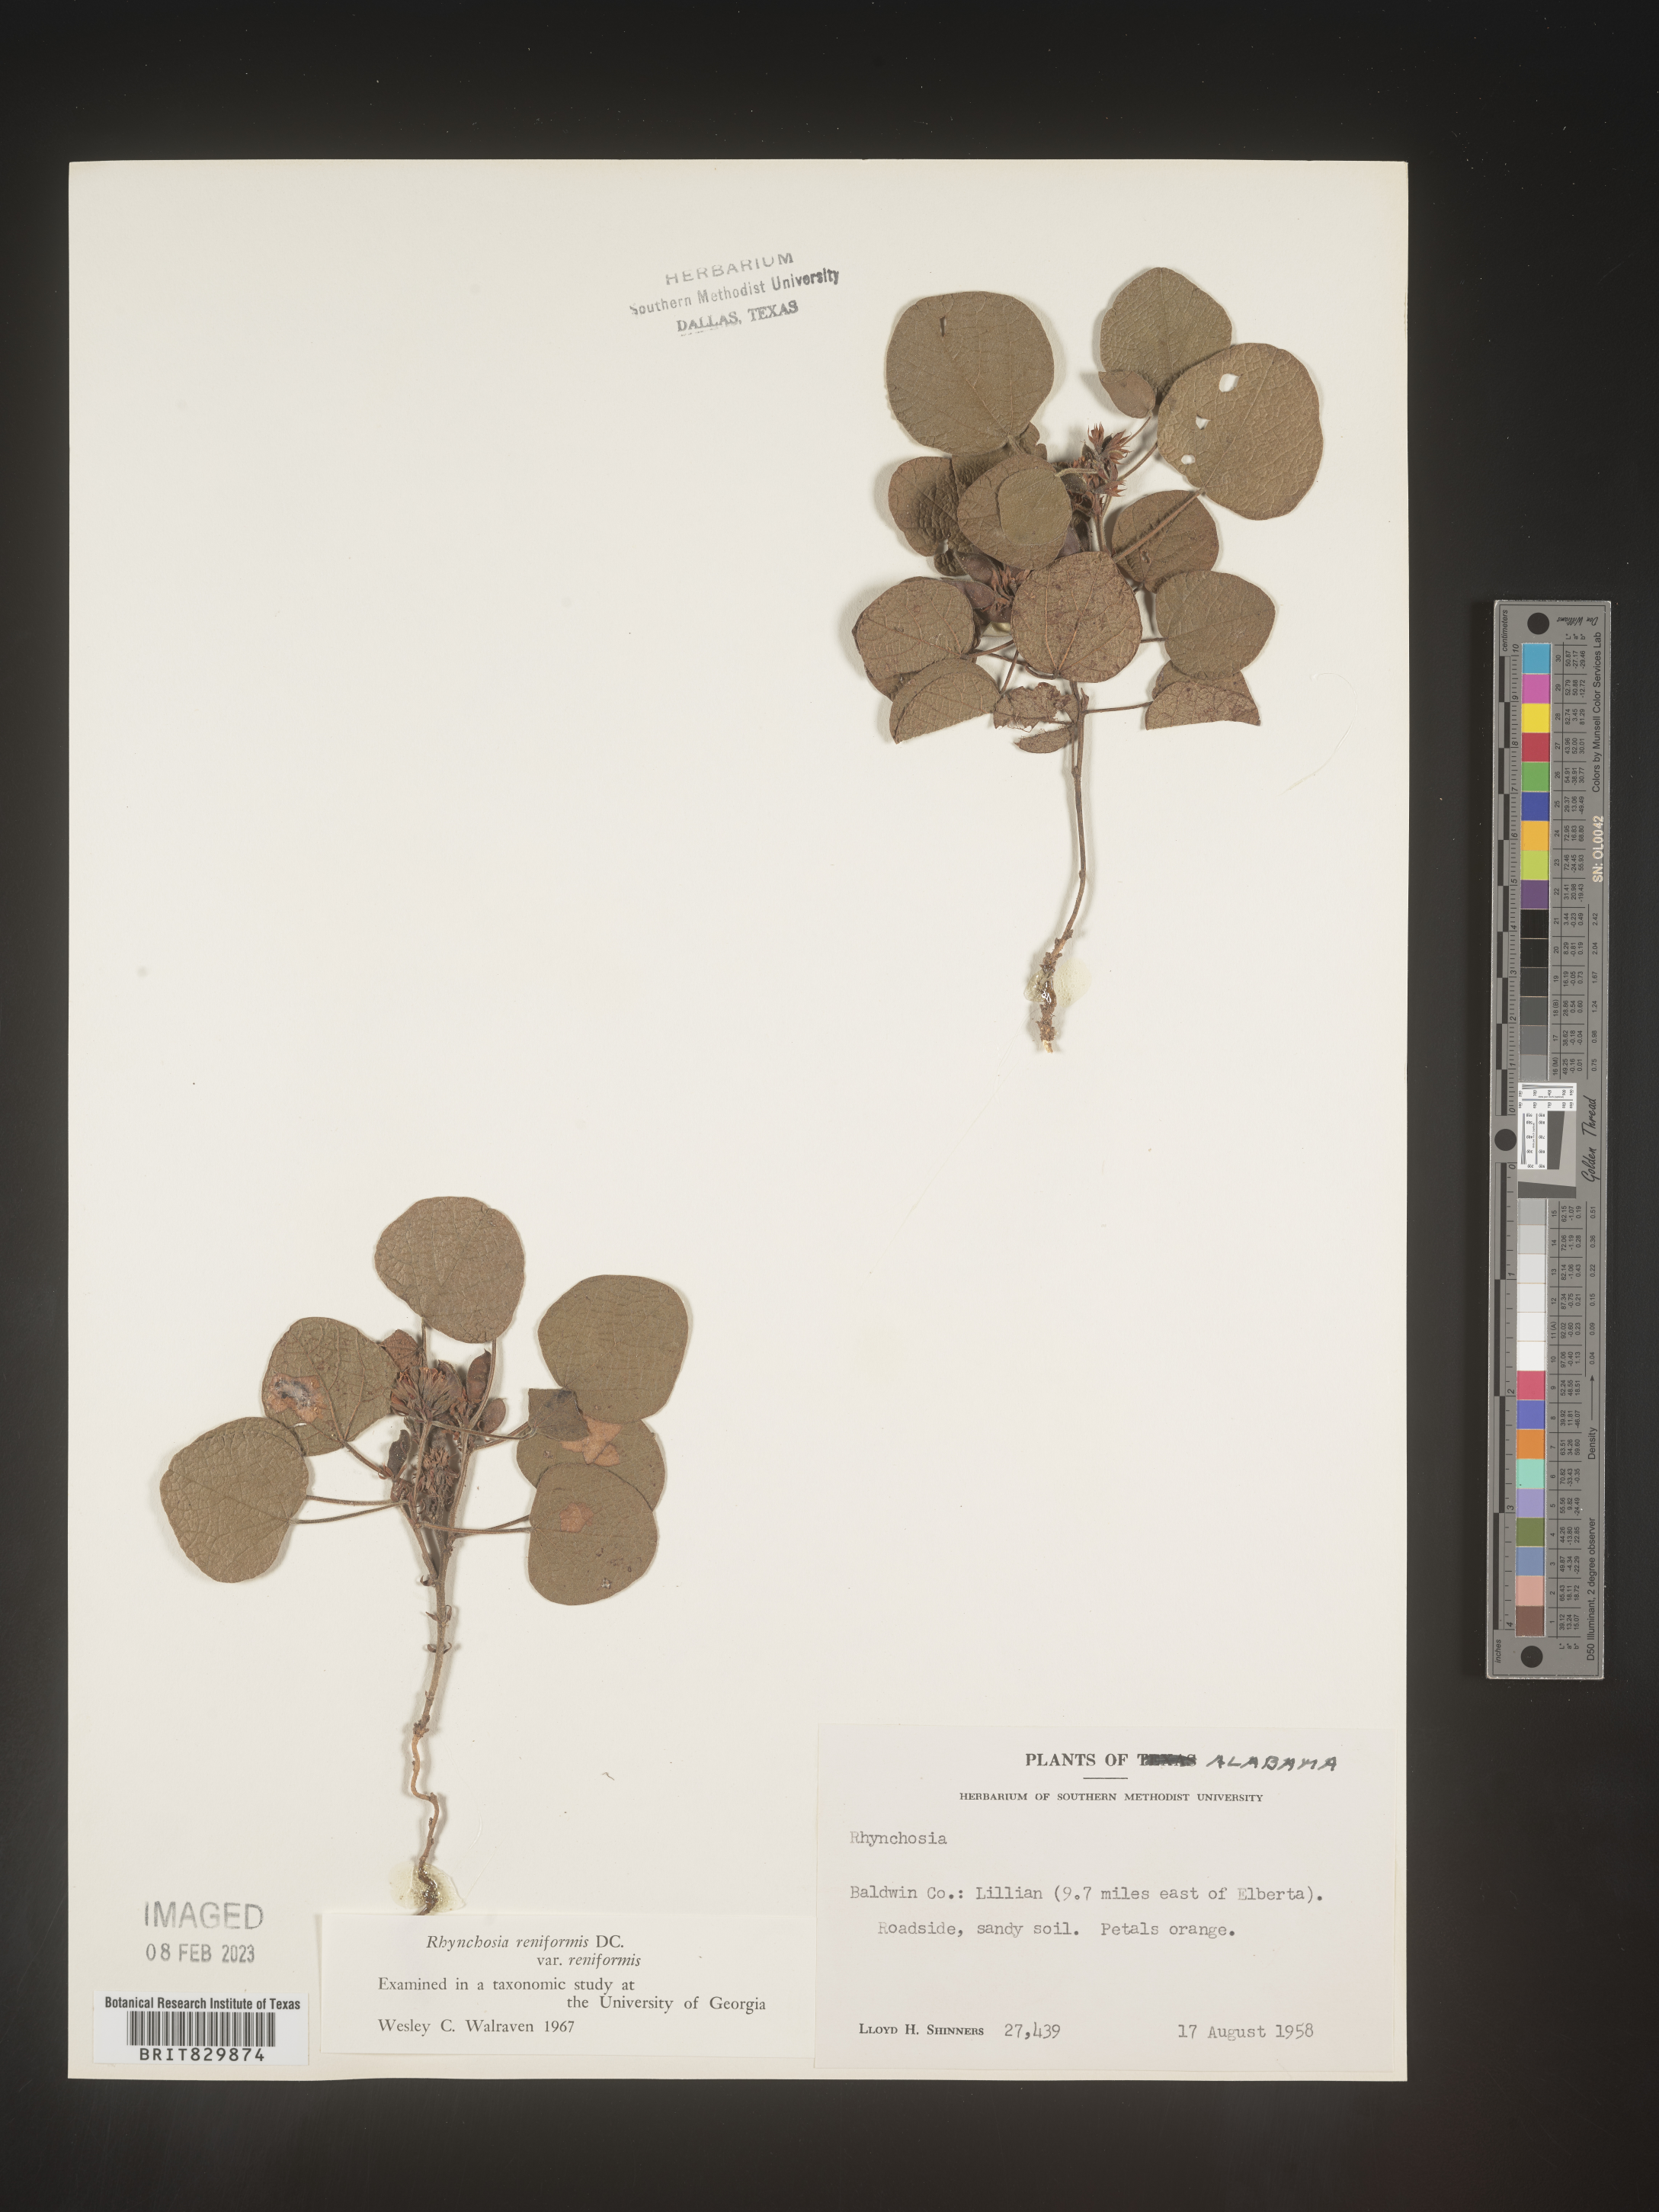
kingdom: Plantae
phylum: Tracheophyta
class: Magnoliopsida
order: Fabales
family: Fabaceae
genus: Rhynchosia
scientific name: Rhynchosia reniformis
